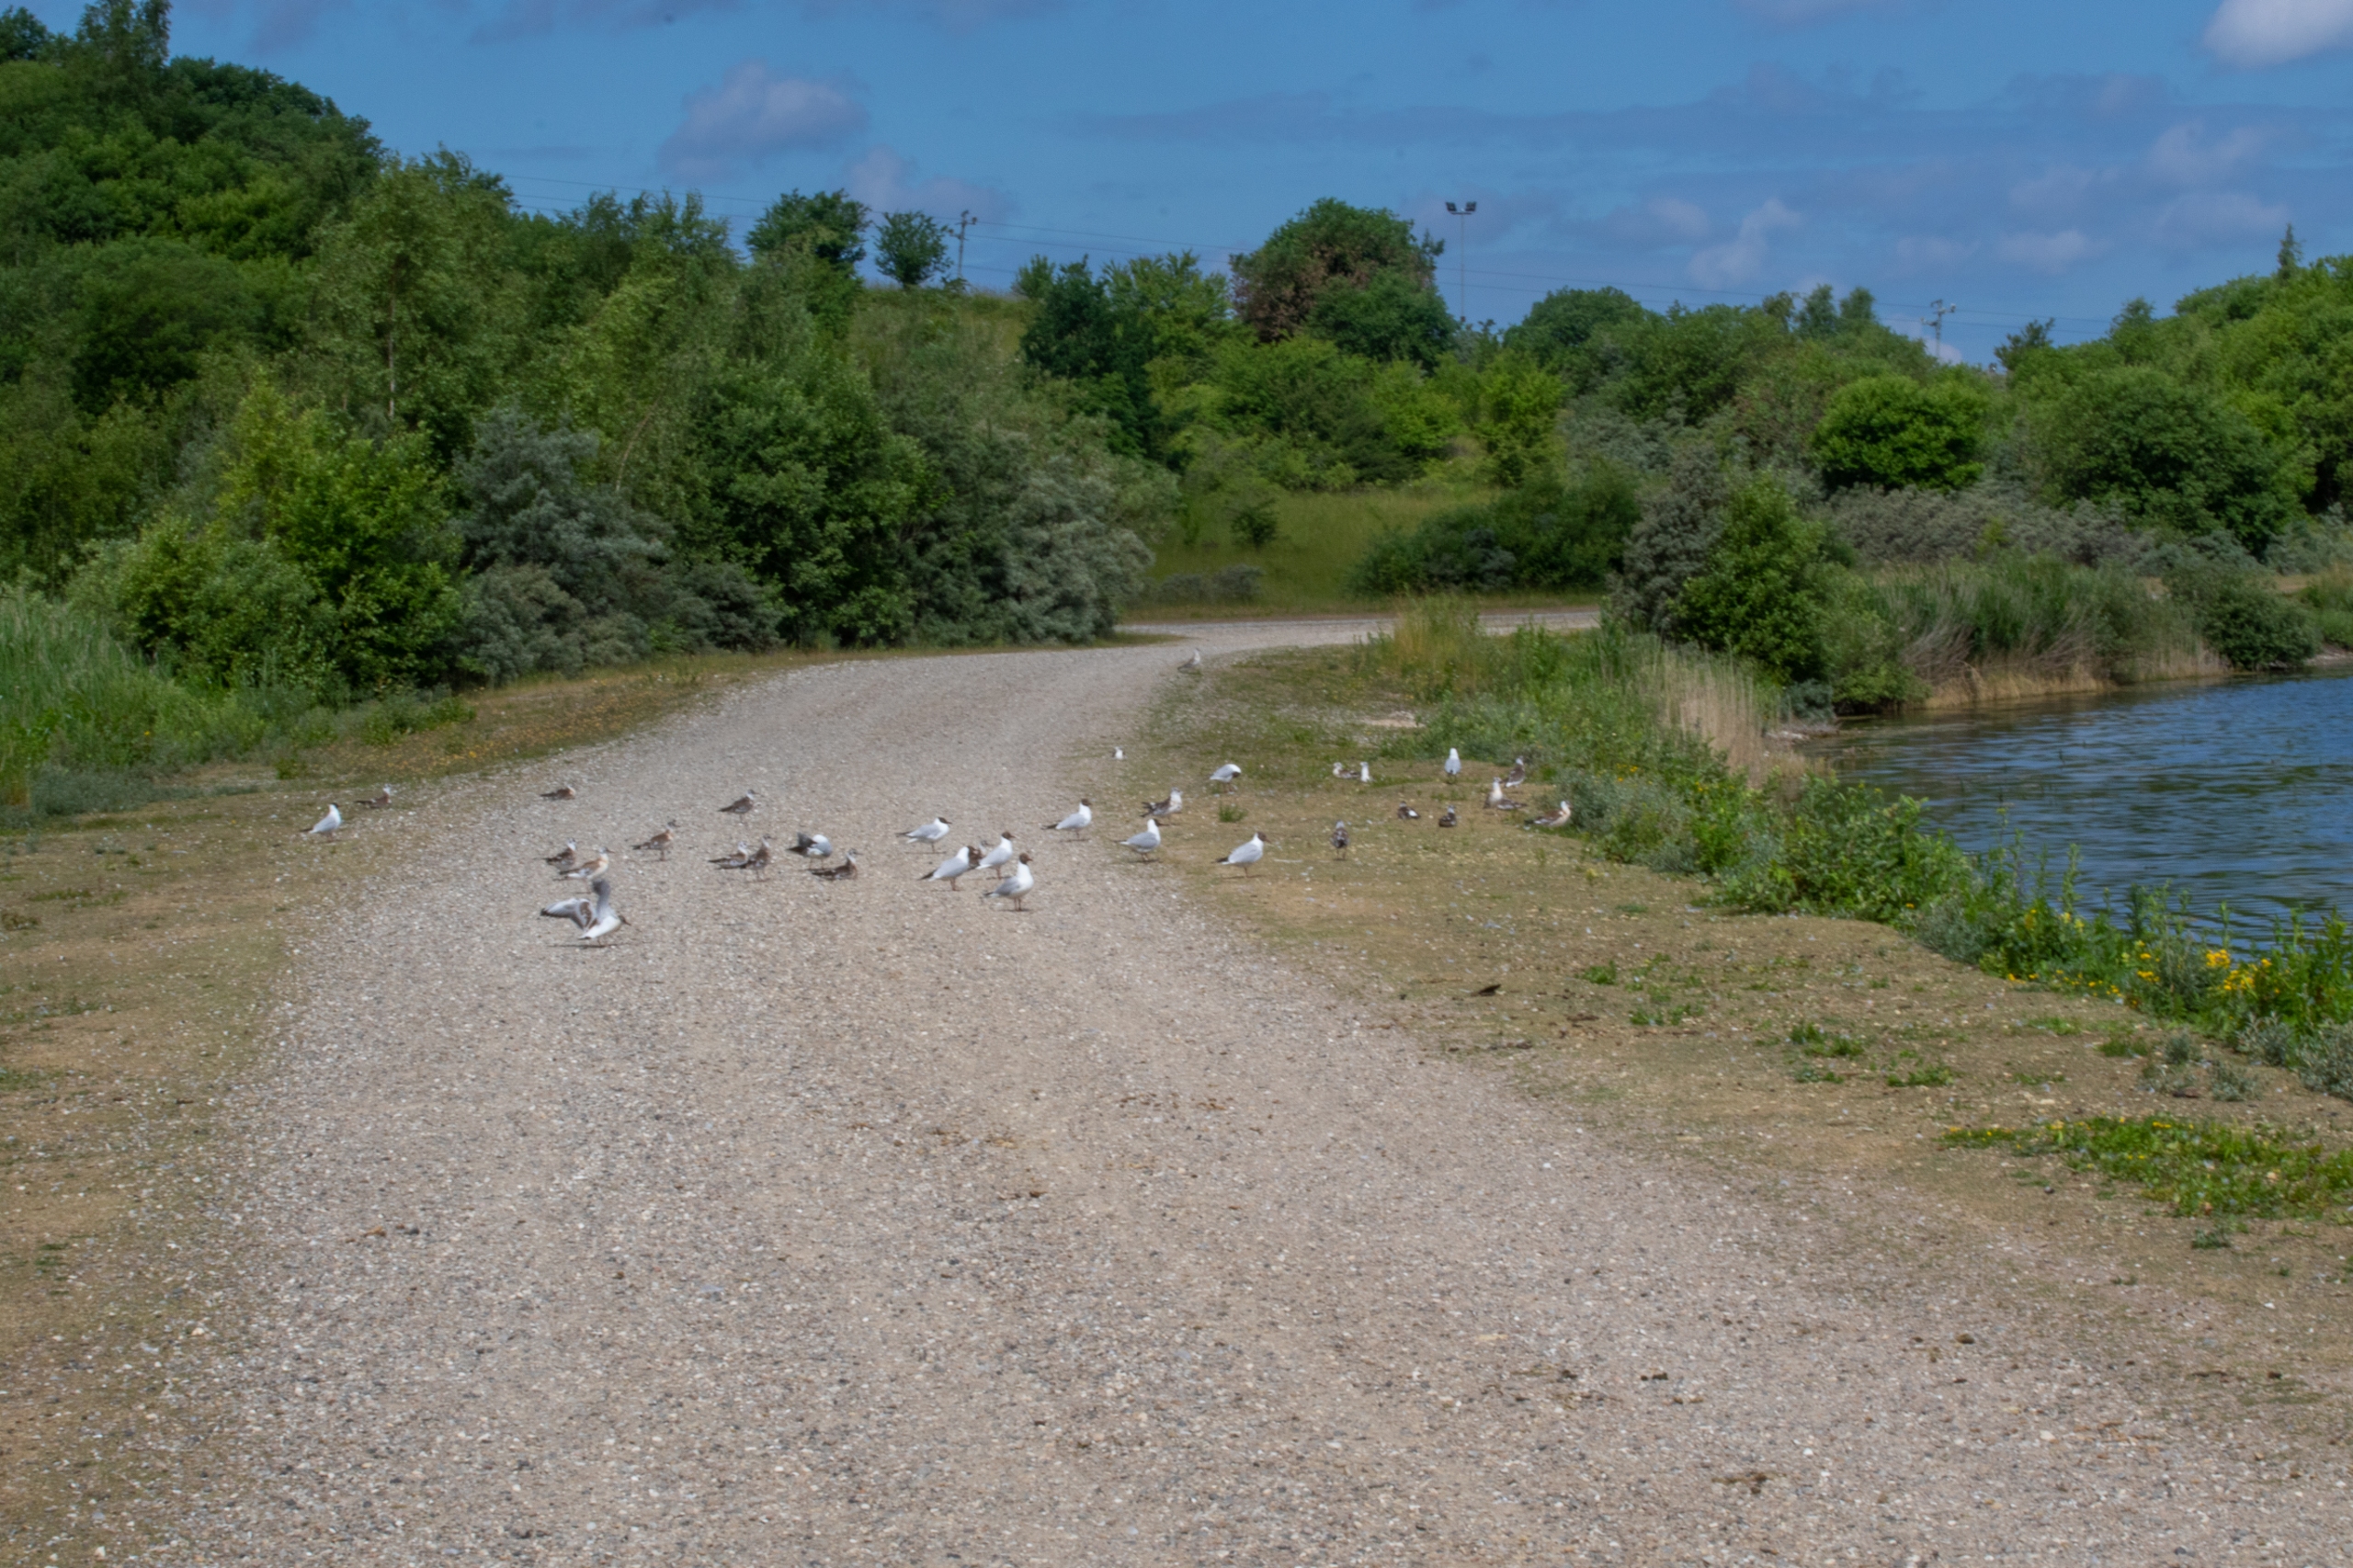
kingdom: Animalia
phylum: Chordata
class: Aves
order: Charadriiformes
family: Laridae
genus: Chroicocephalus
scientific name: Chroicocephalus ridibundus
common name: Hættemåge
